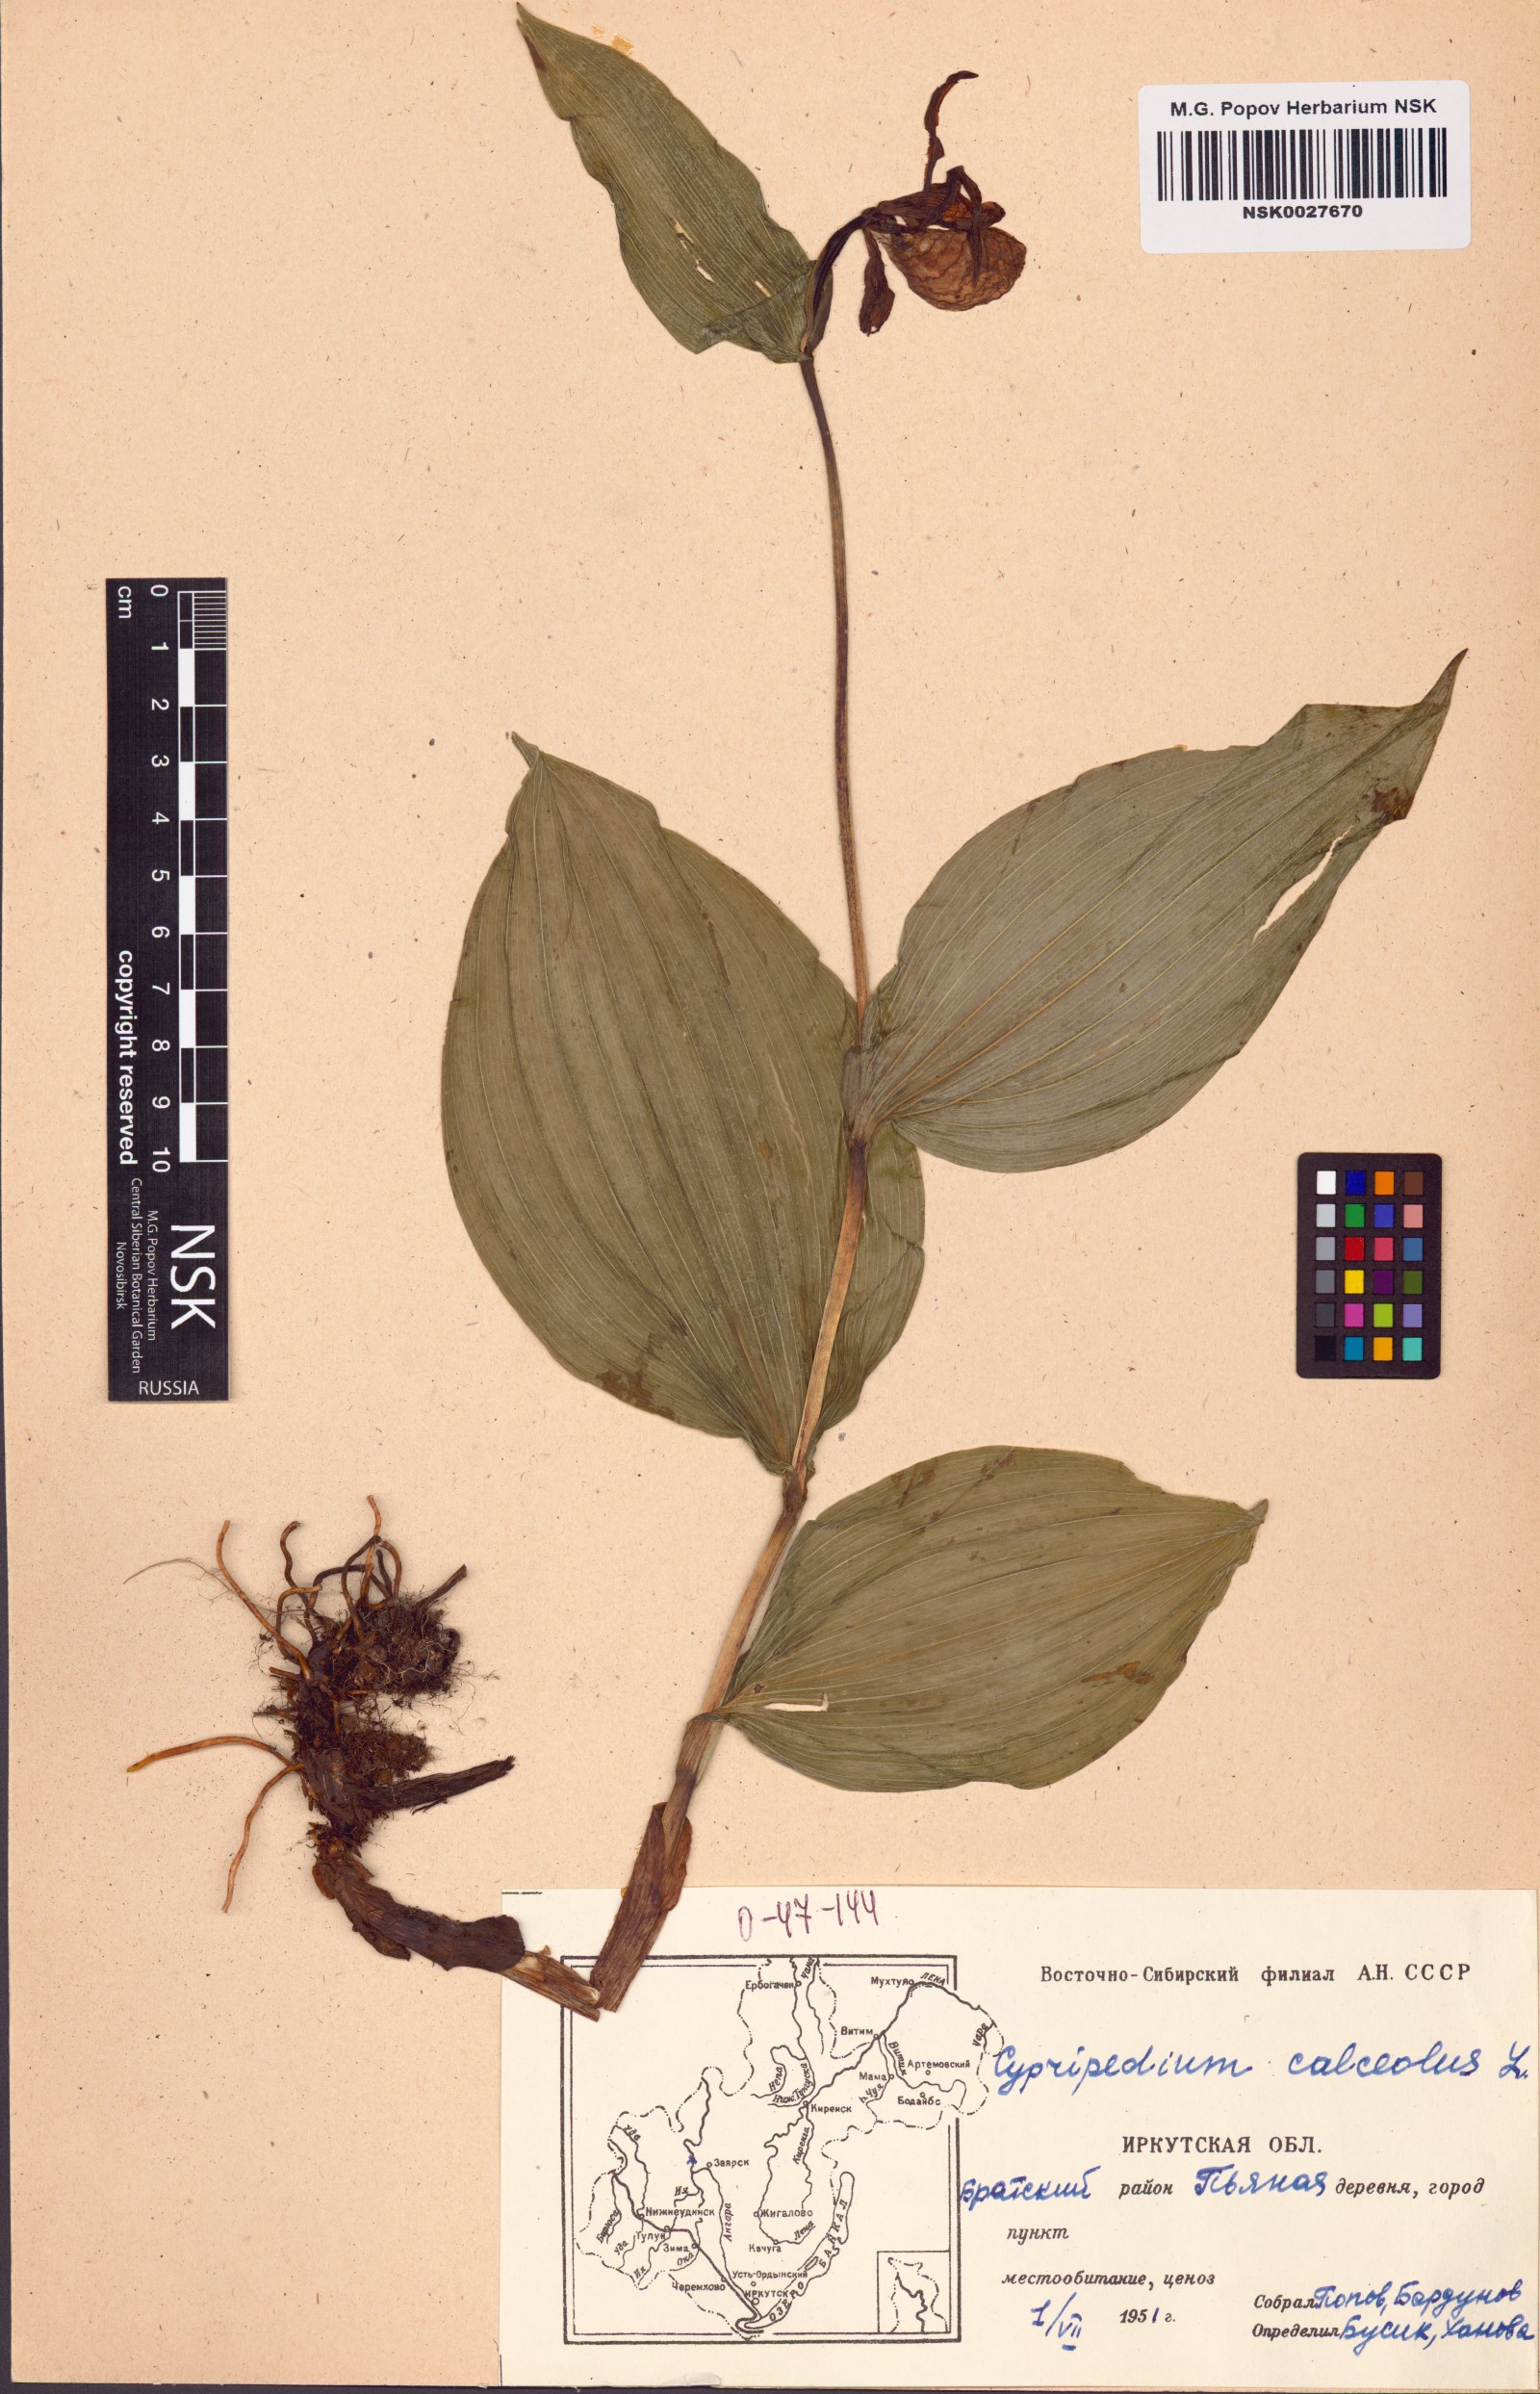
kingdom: Plantae
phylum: Tracheophyta
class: Liliopsida
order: Asparagales
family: Orchidaceae
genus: Cypripedium
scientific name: Cypripedium calceolus
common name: Lady's-slipper
